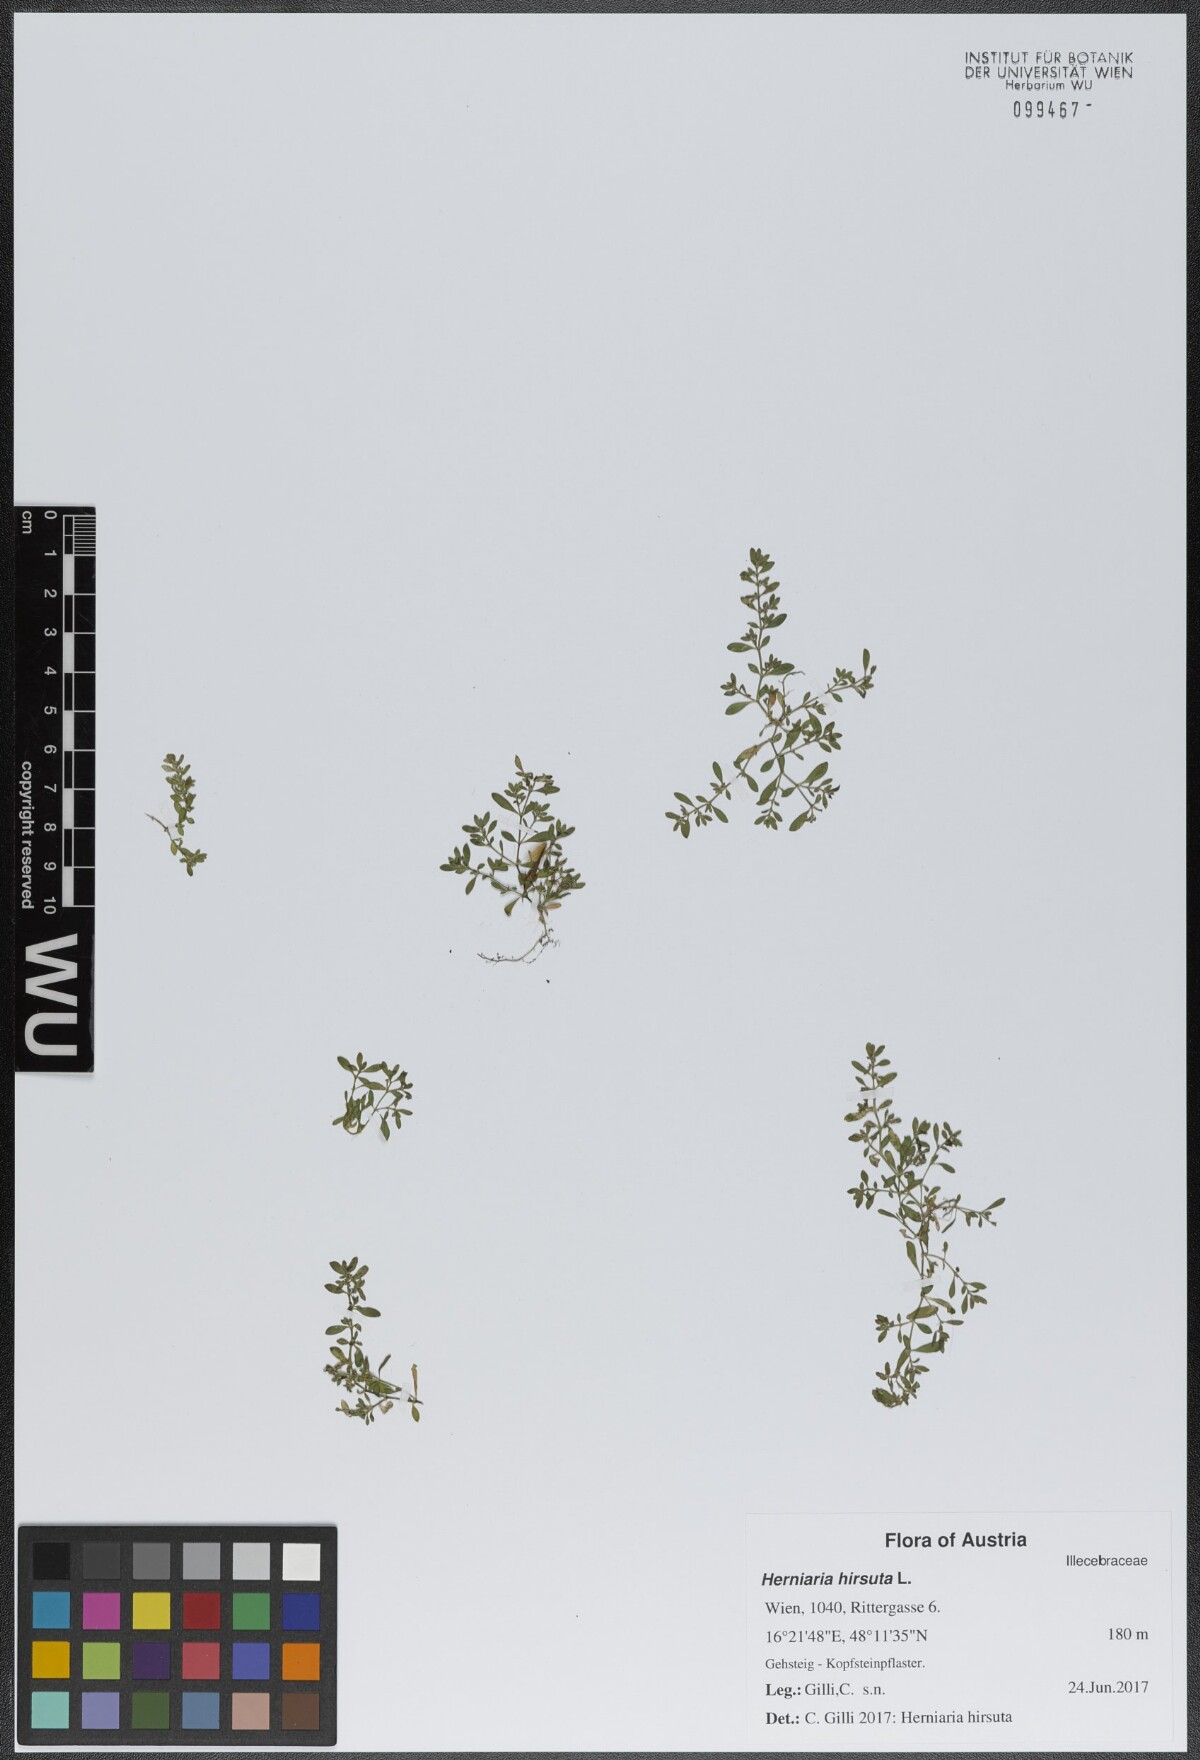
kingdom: Plantae
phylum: Tracheophyta
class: Magnoliopsida
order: Caryophyllales
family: Caryophyllaceae
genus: Herniaria
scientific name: Herniaria hirsuta
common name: Hairy rupturewort
